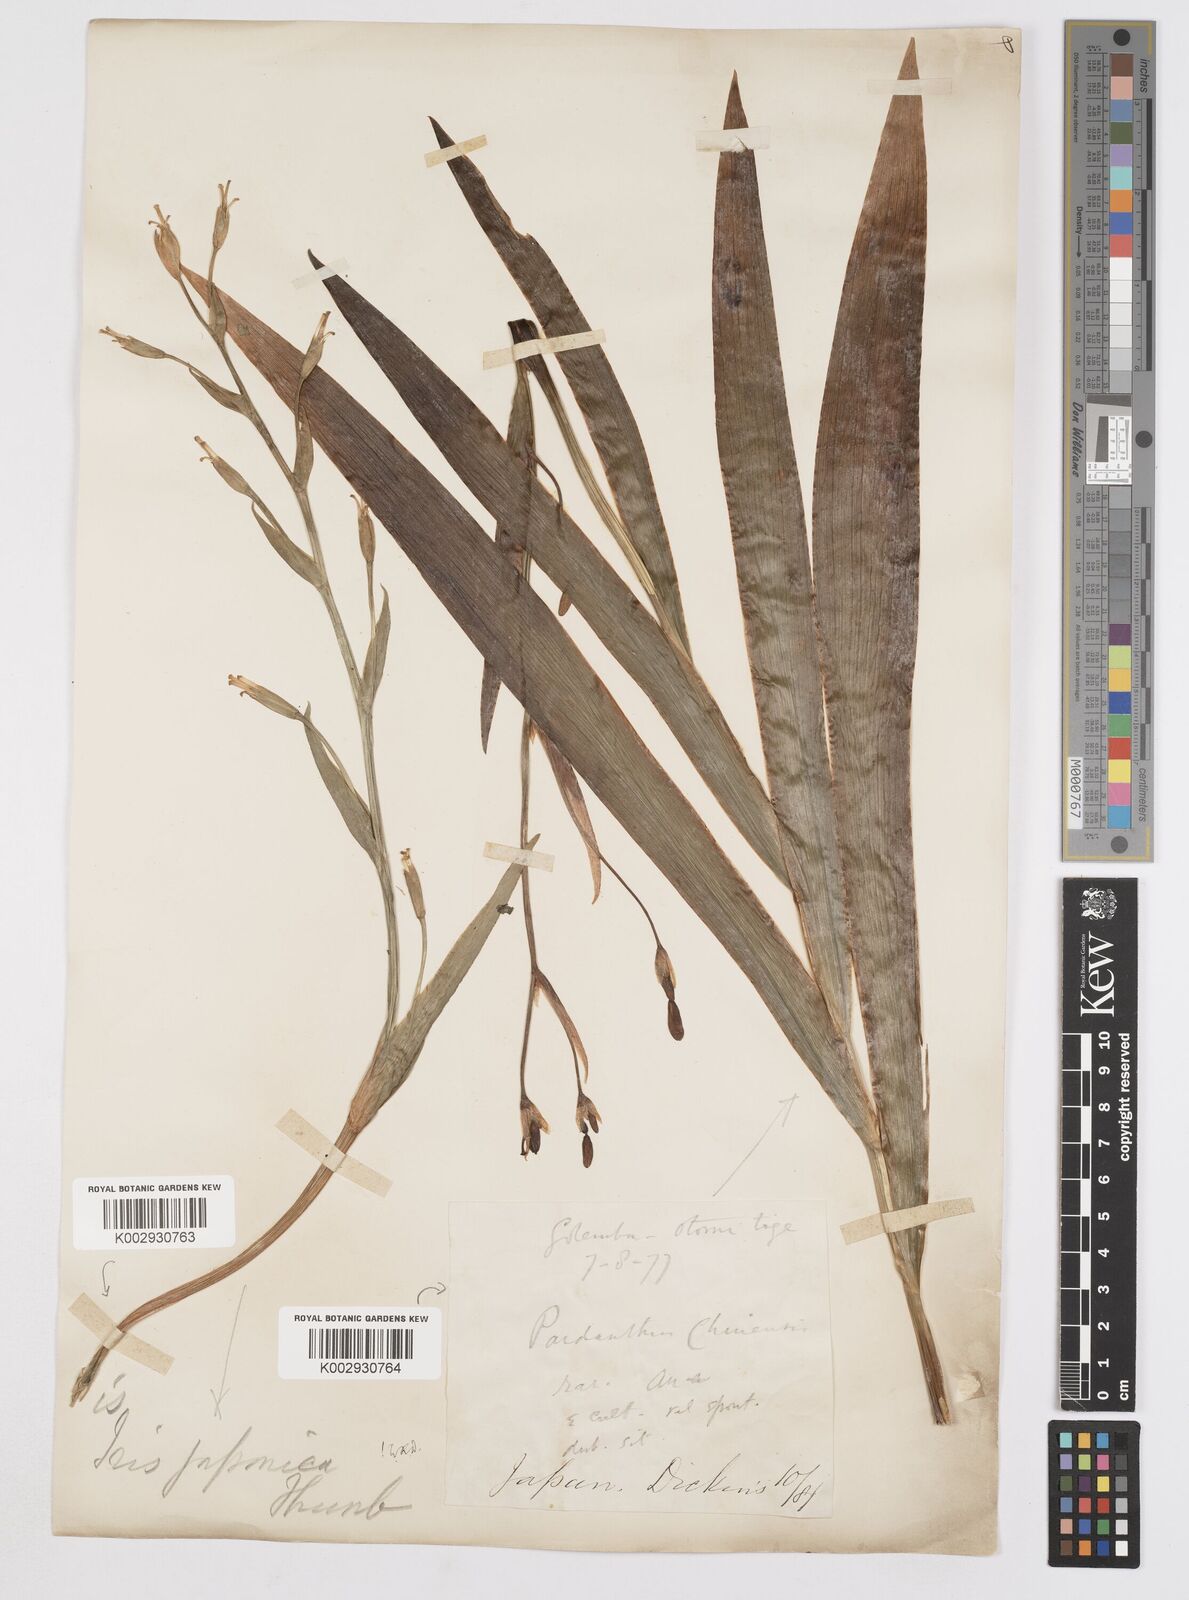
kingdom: Plantae
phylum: Tracheophyta
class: Liliopsida
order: Asparagales
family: Iridaceae
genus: Iris
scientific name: Iris japonica
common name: Butterfly-flower
